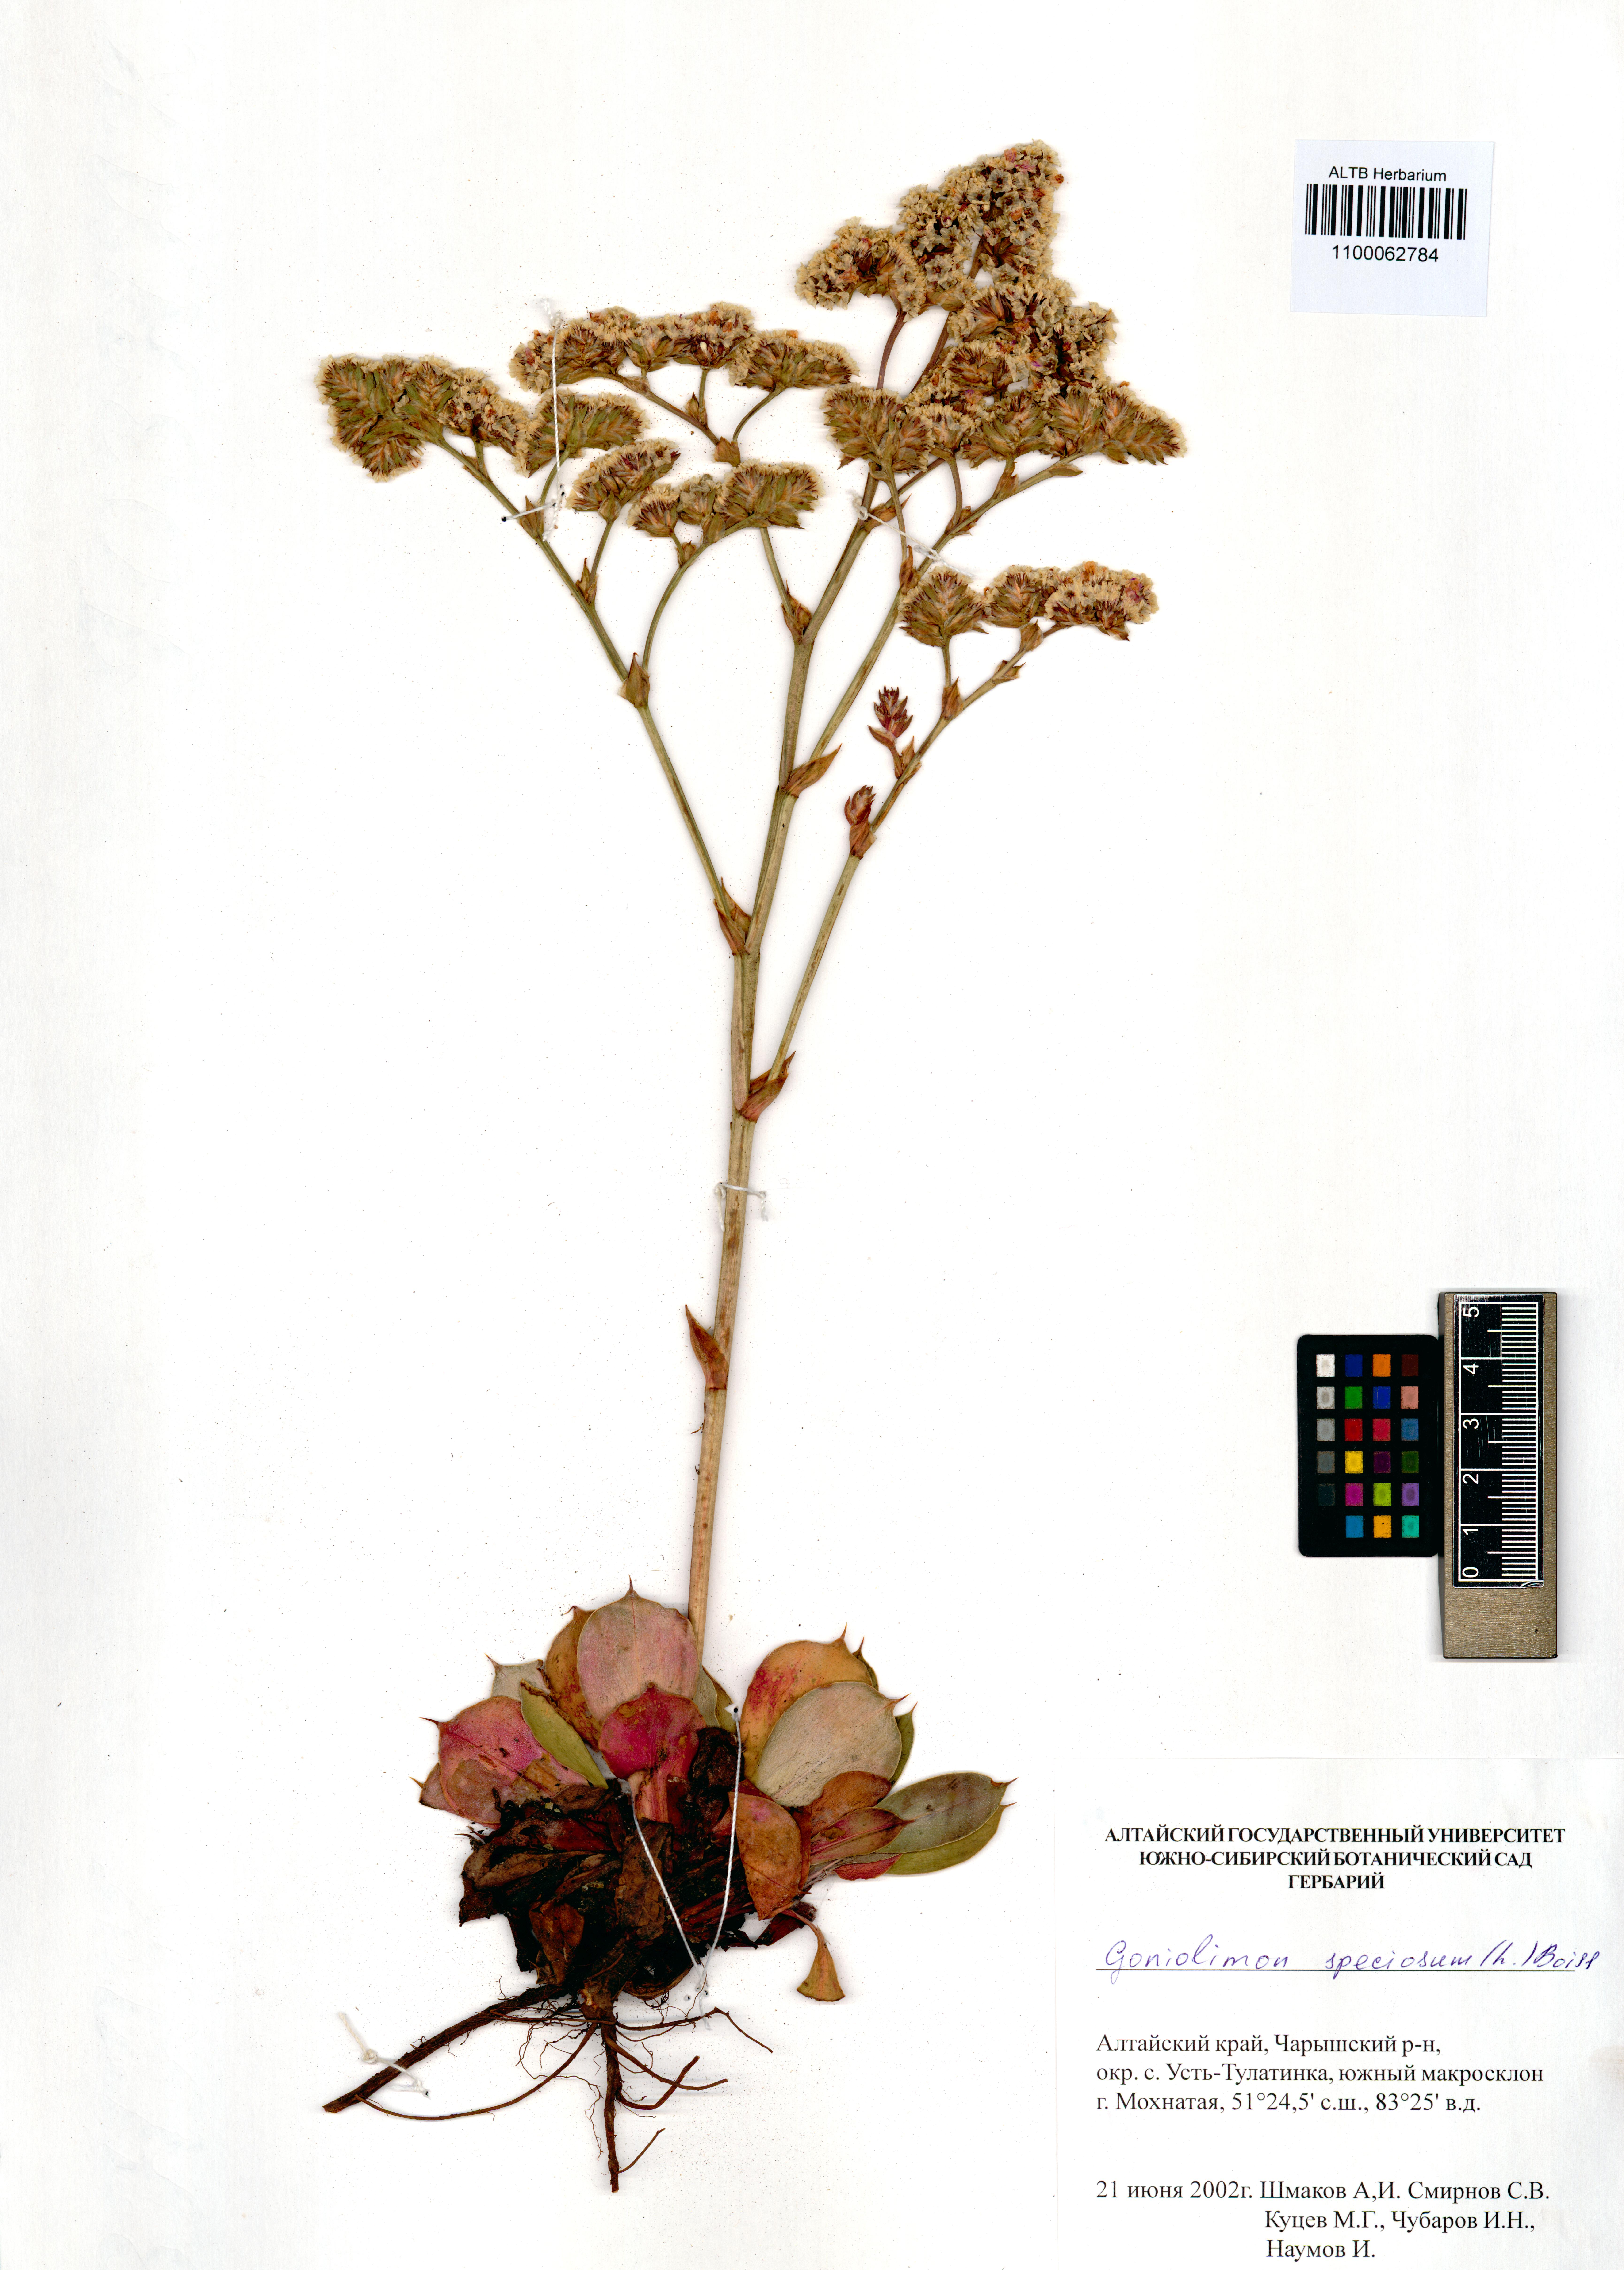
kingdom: Plantae
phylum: Tracheophyta
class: Magnoliopsida
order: Caryophyllales
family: Plumbaginaceae
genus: Goniolimon
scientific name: Goniolimon speciosum
